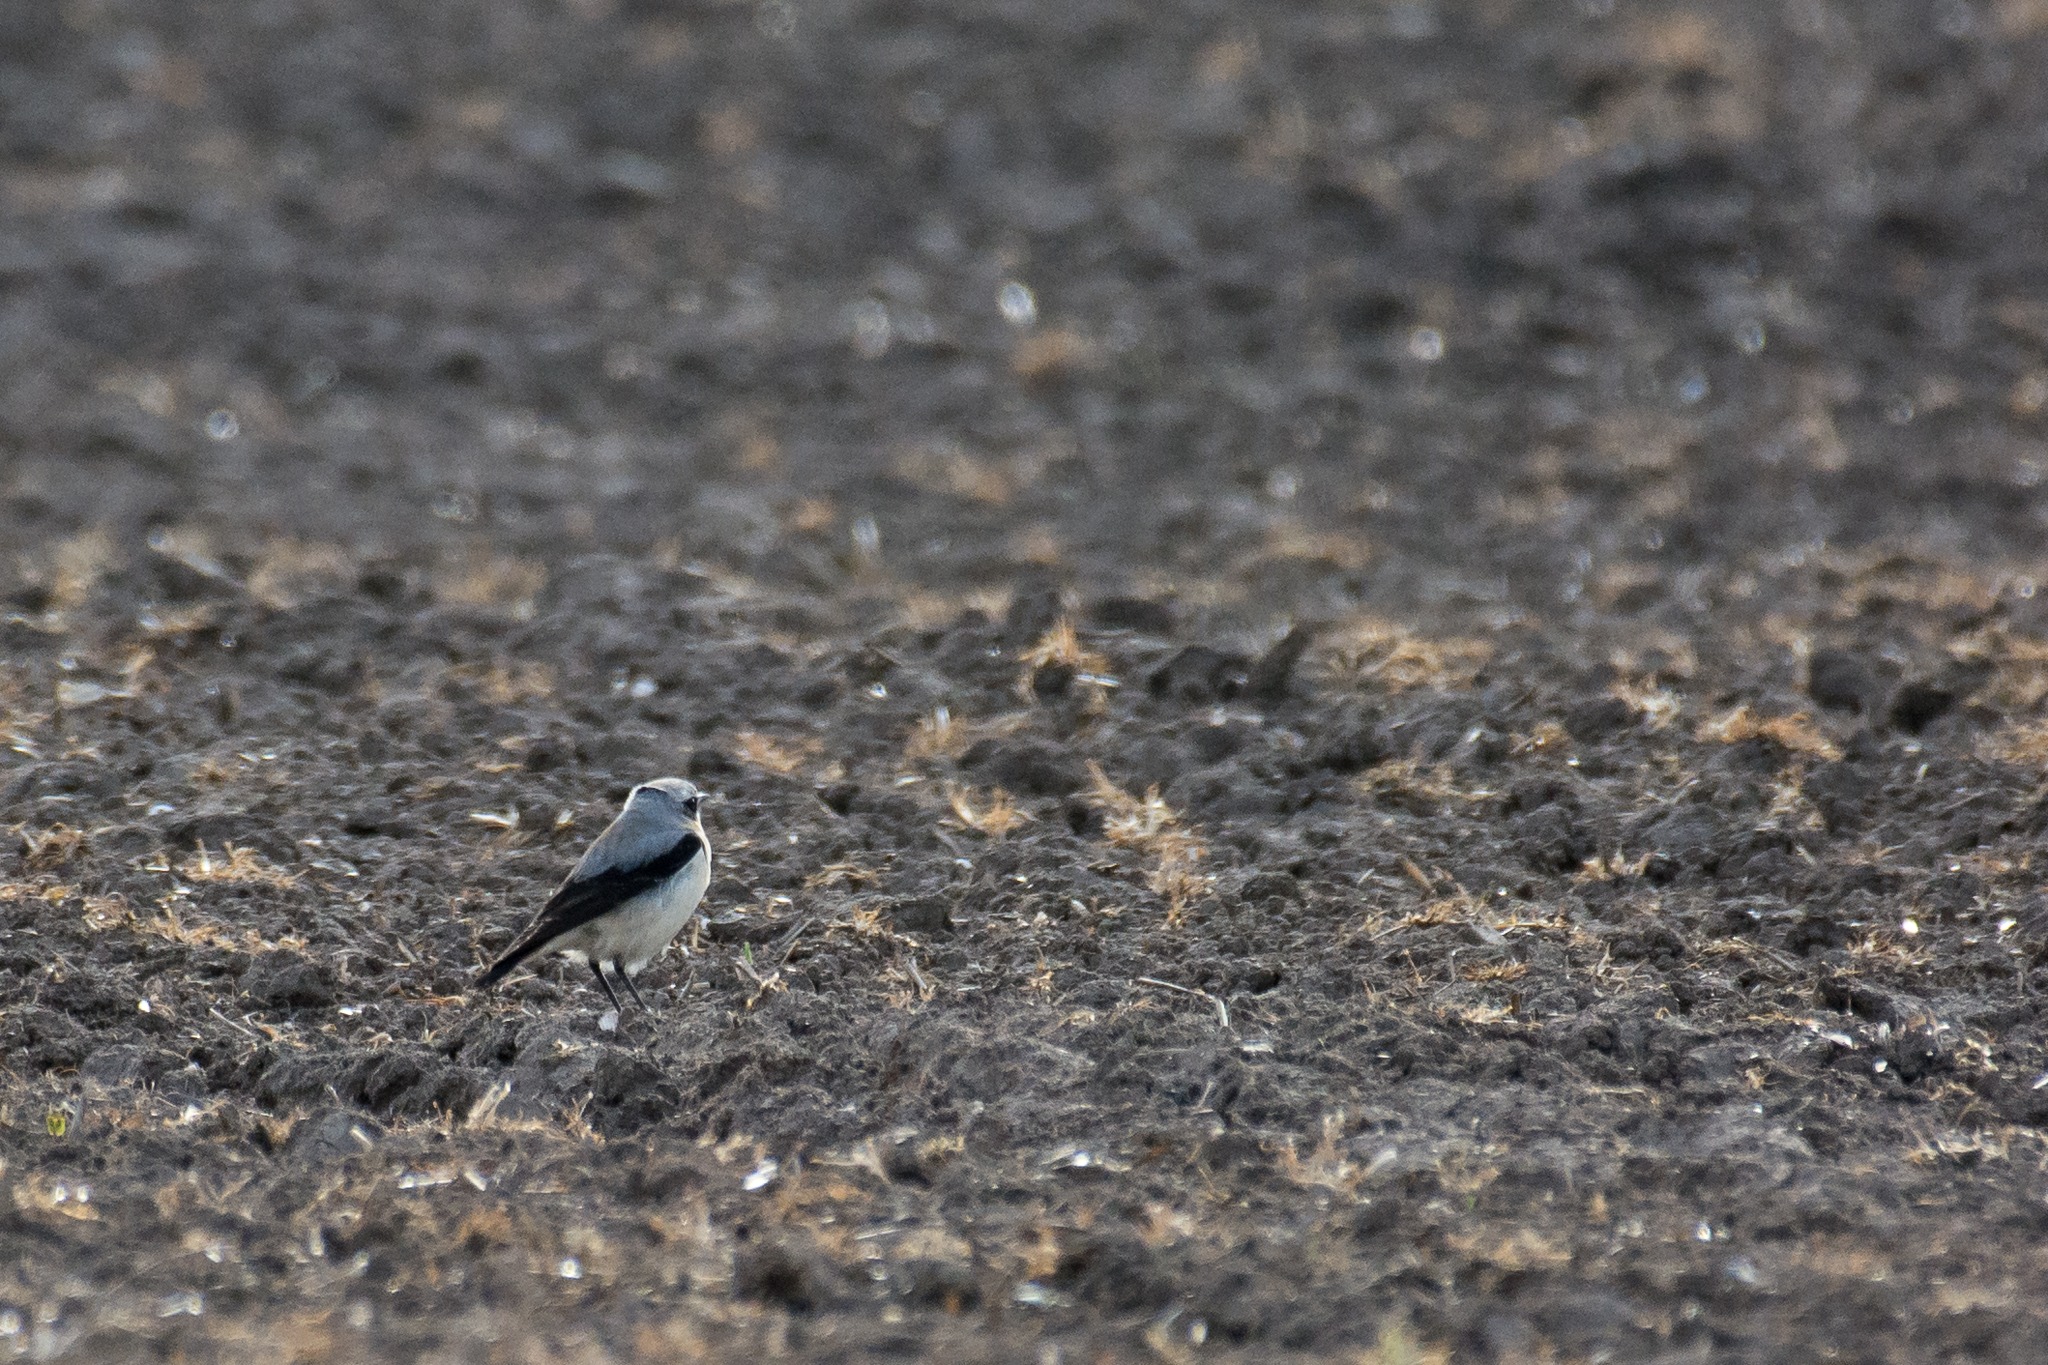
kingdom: Animalia
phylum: Chordata
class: Aves
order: Passeriformes
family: Muscicapidae
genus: Oenanthe
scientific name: Oenanthe oenanthe
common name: Stenpikker
